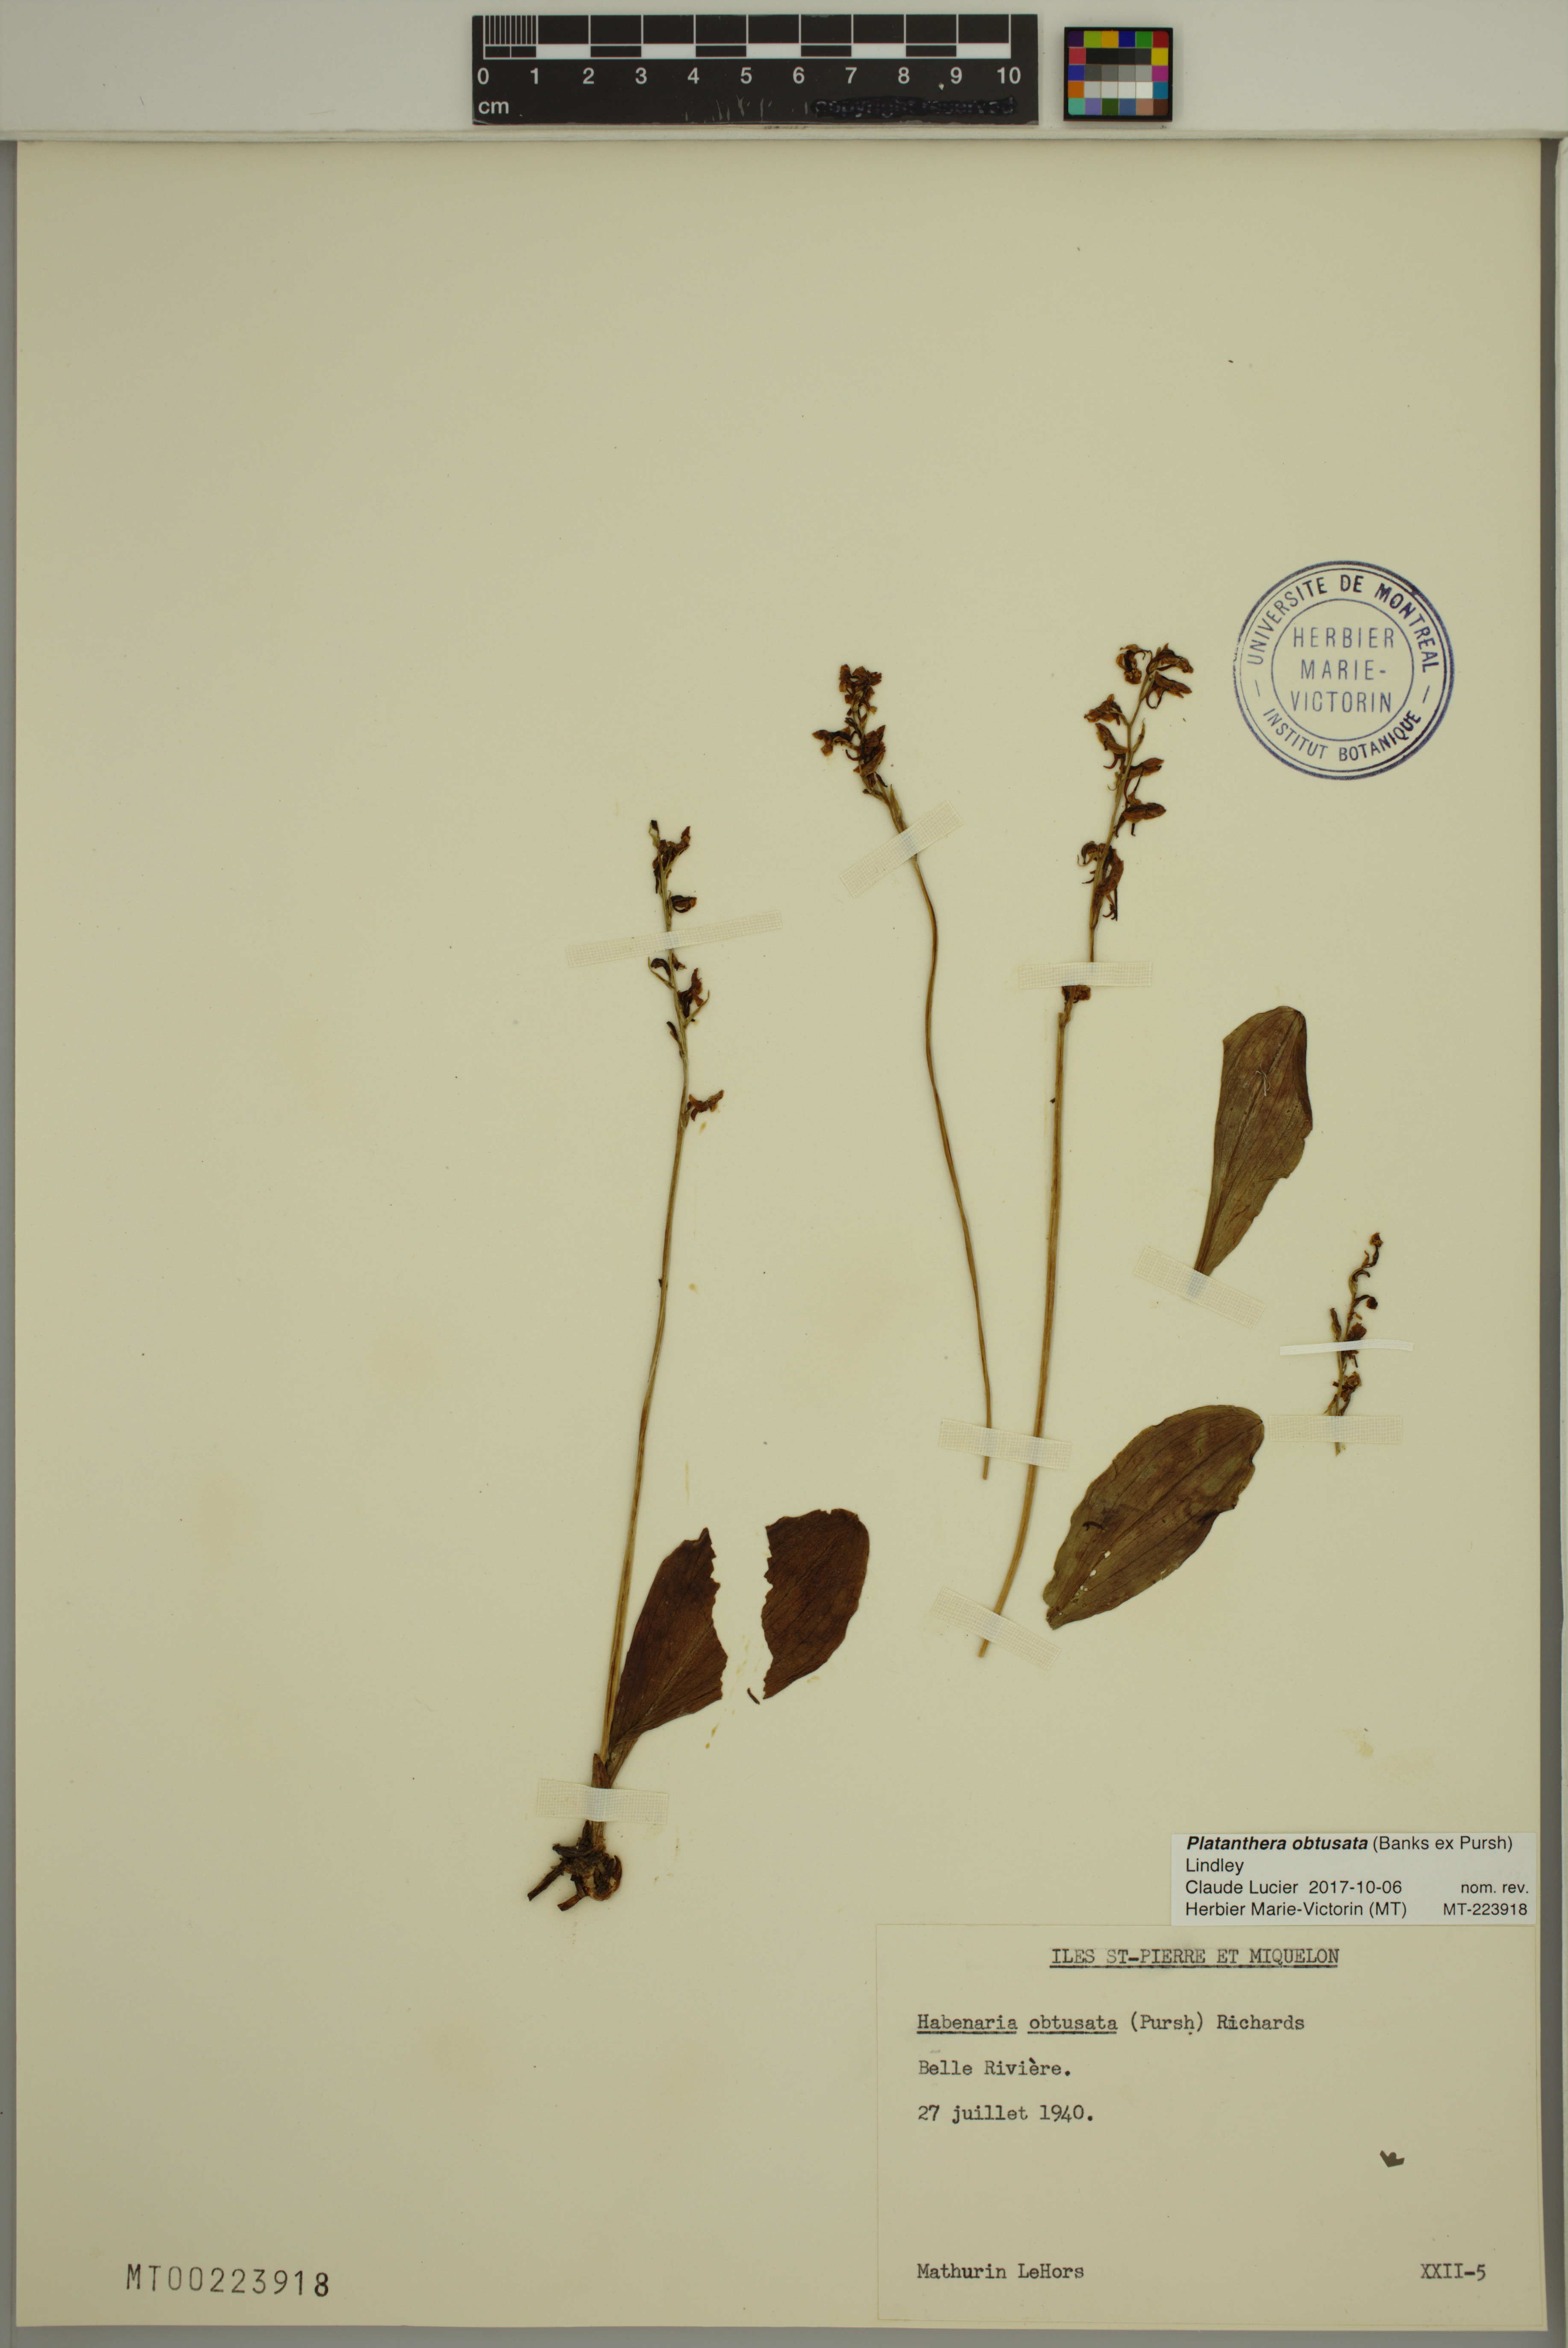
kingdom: Plantae
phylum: Tracheophyta
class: Liliopsida
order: Asparagales
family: Orchidaceae
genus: Platanthera
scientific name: Platanthera obtusata
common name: Blunt bog orchid
